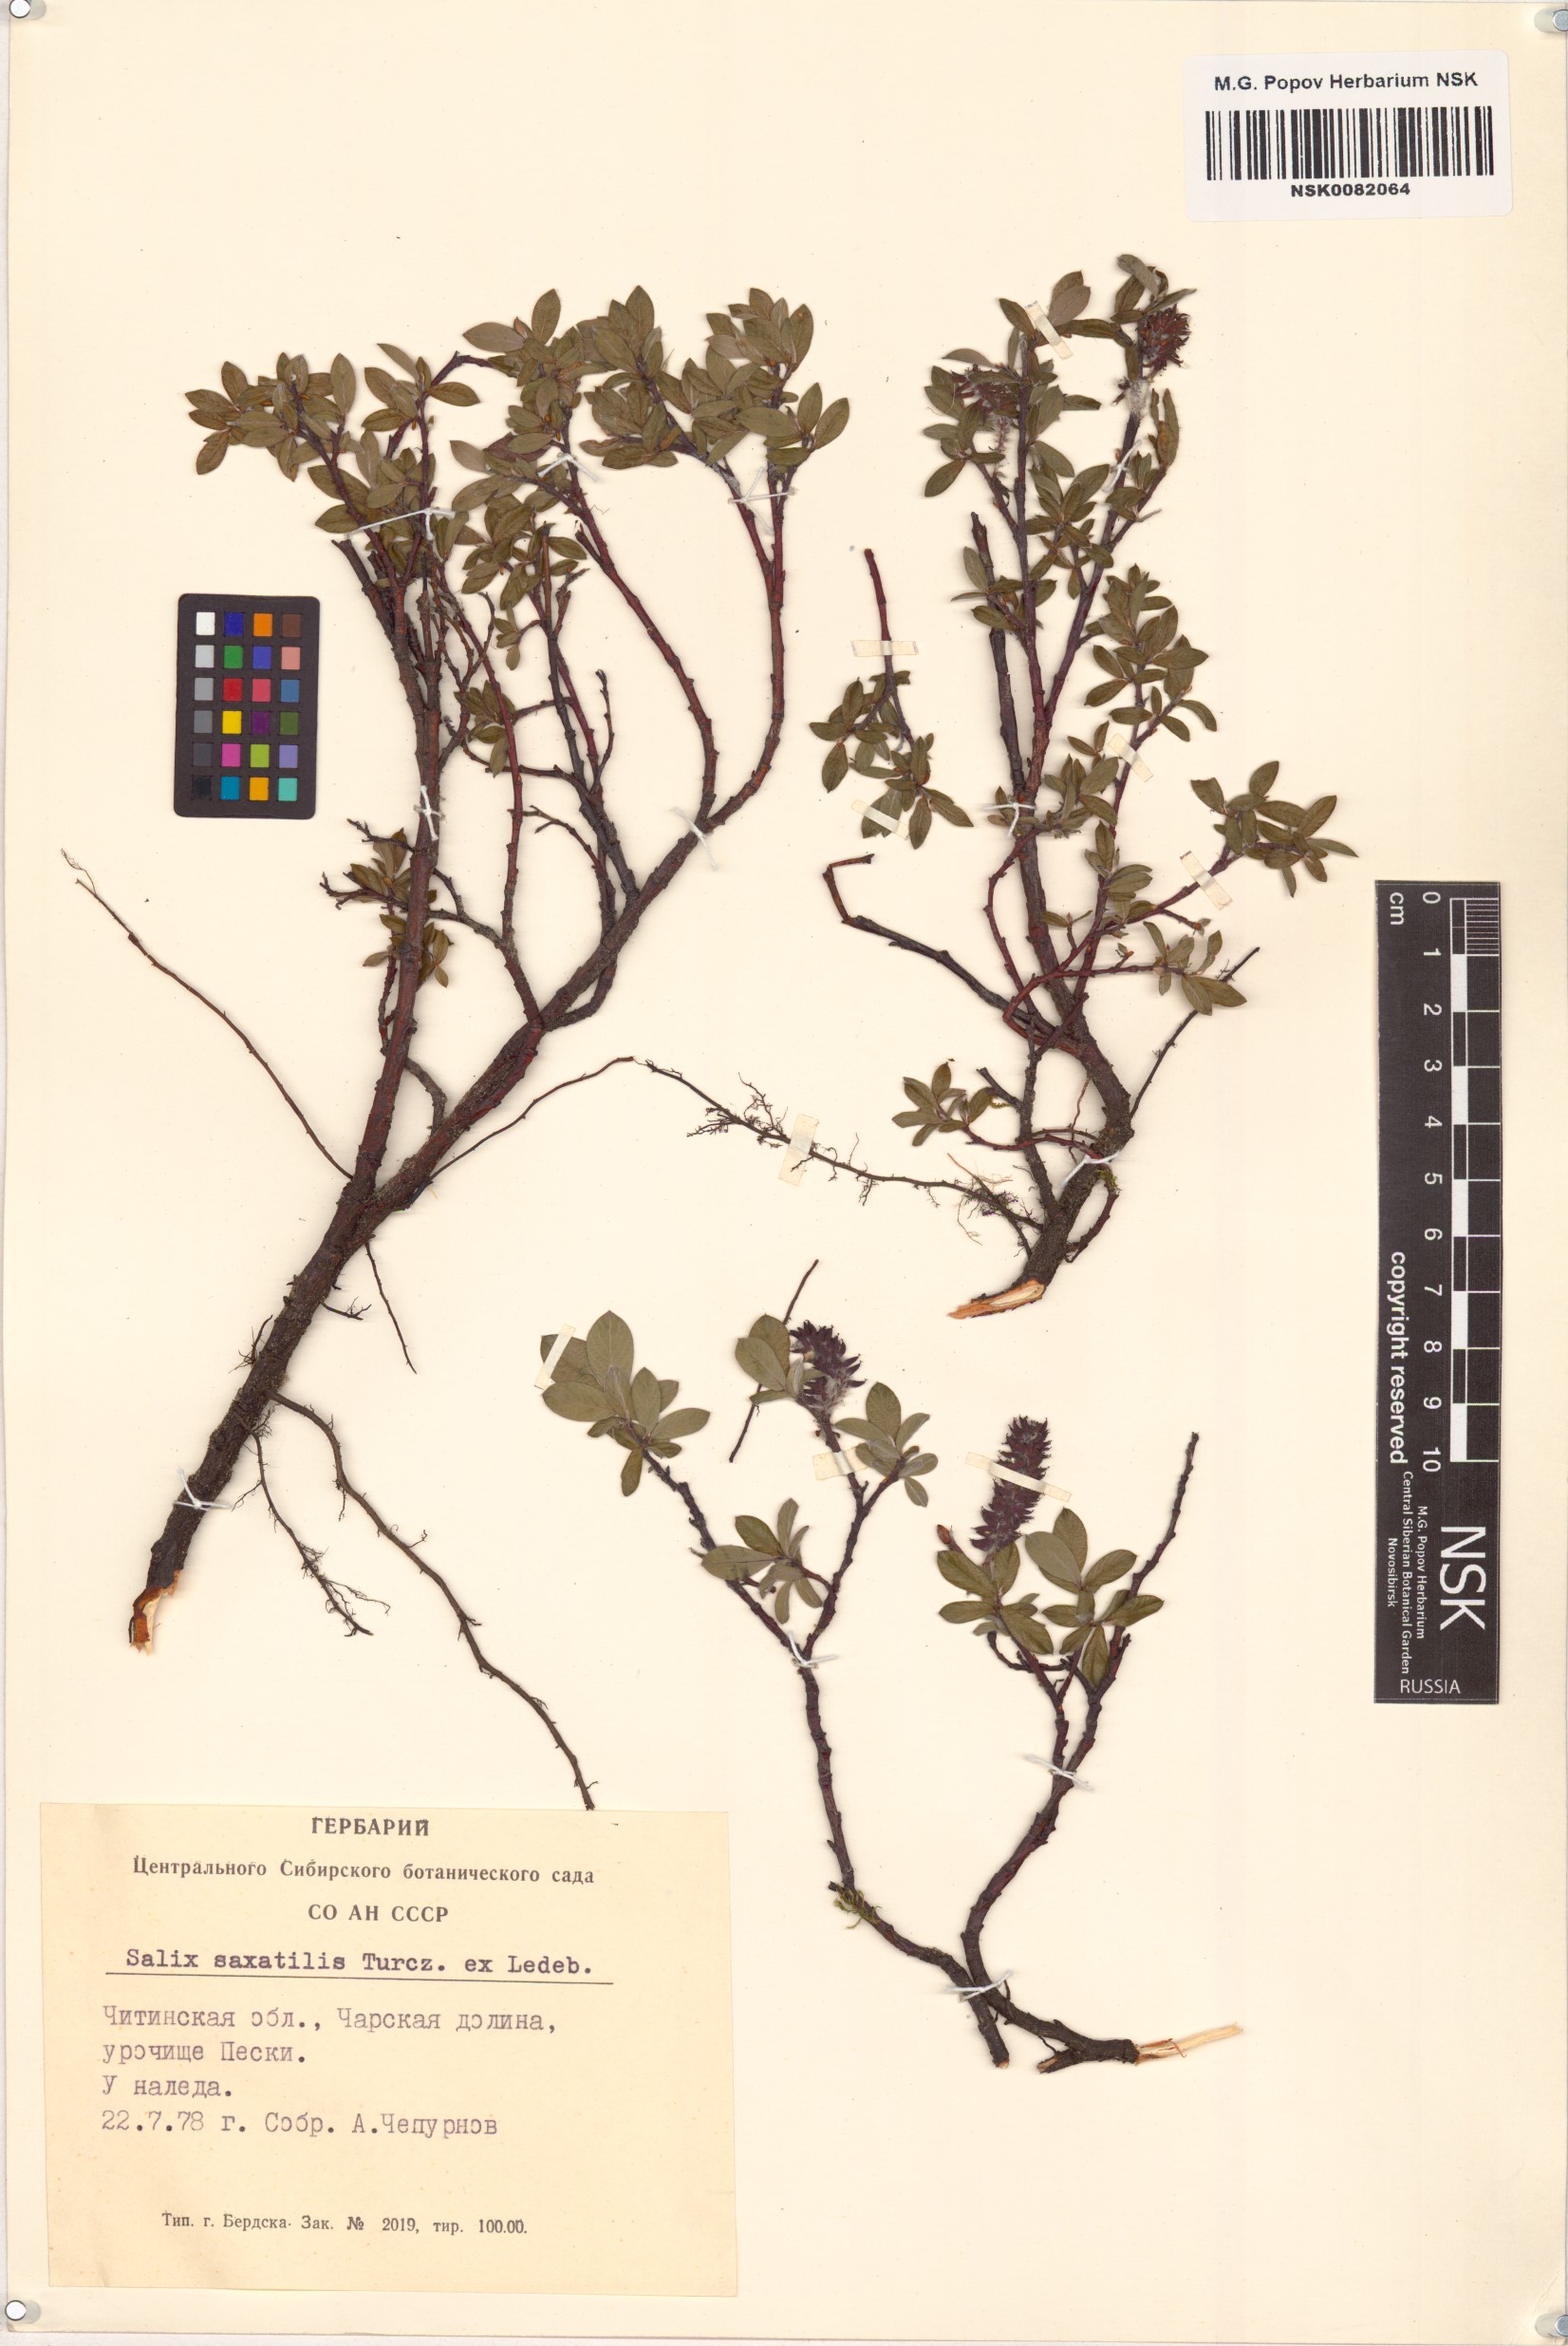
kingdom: Plantae
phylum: Tracheophyta
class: Magnoliopsida
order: Malpighiales
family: Salicaceae
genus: Salix
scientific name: Salix saxatilis
